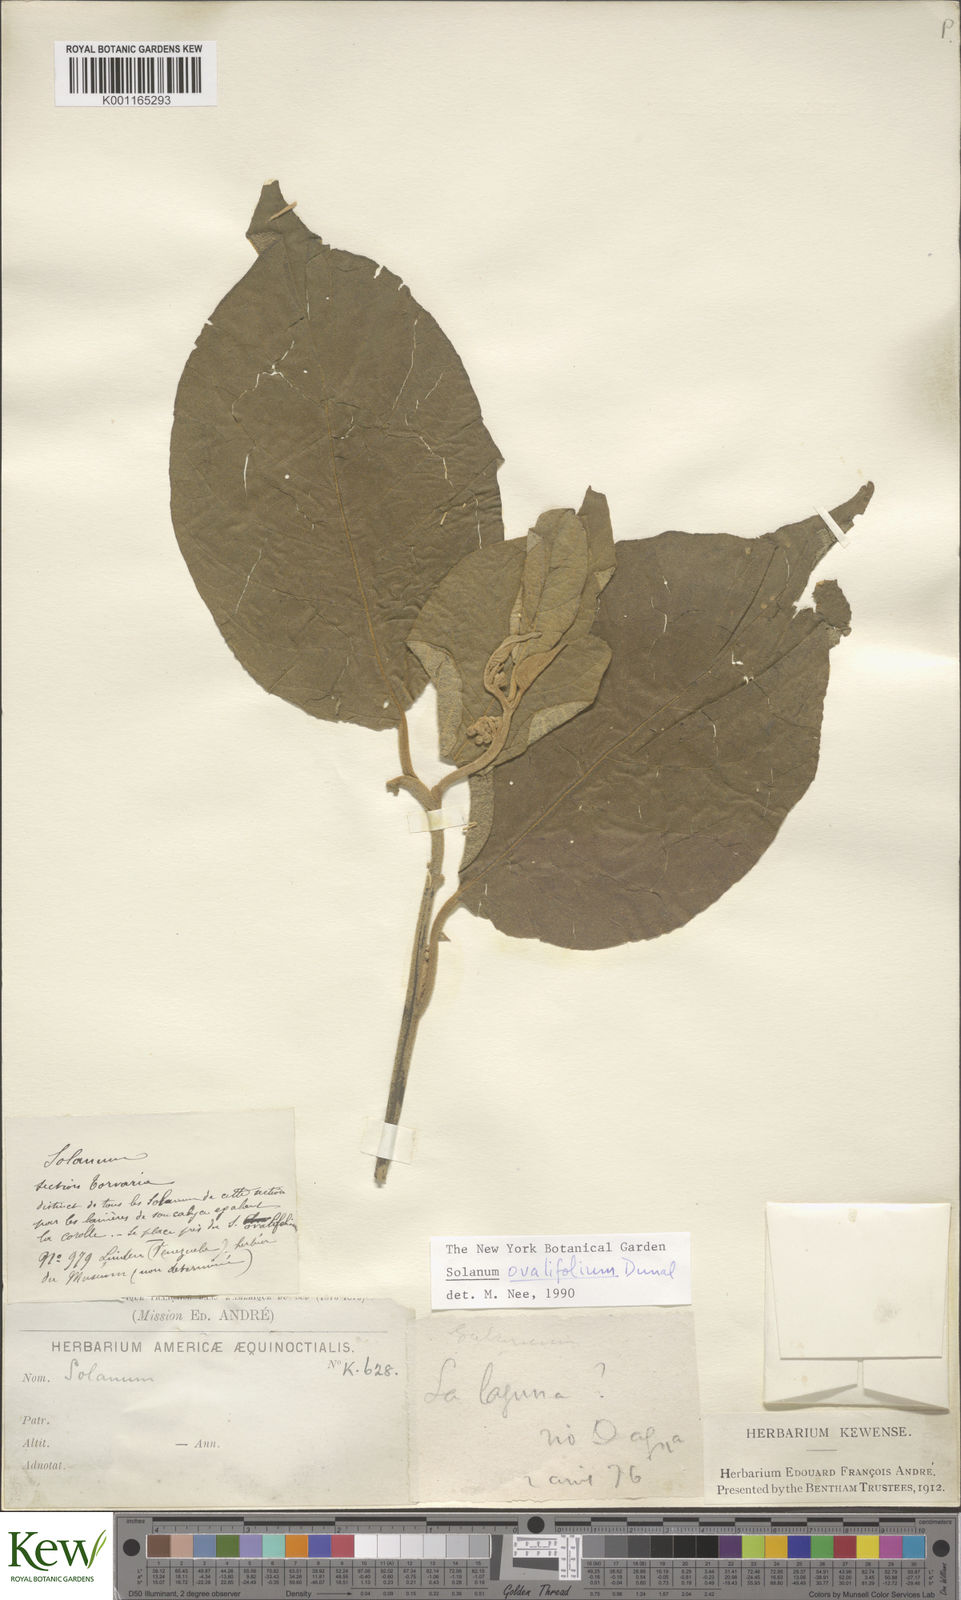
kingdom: Plantae
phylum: Tracheophyta
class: Magnoliopsida
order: Solanales
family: Solanaceae
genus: Solanum
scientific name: Solanum ovalifolium
